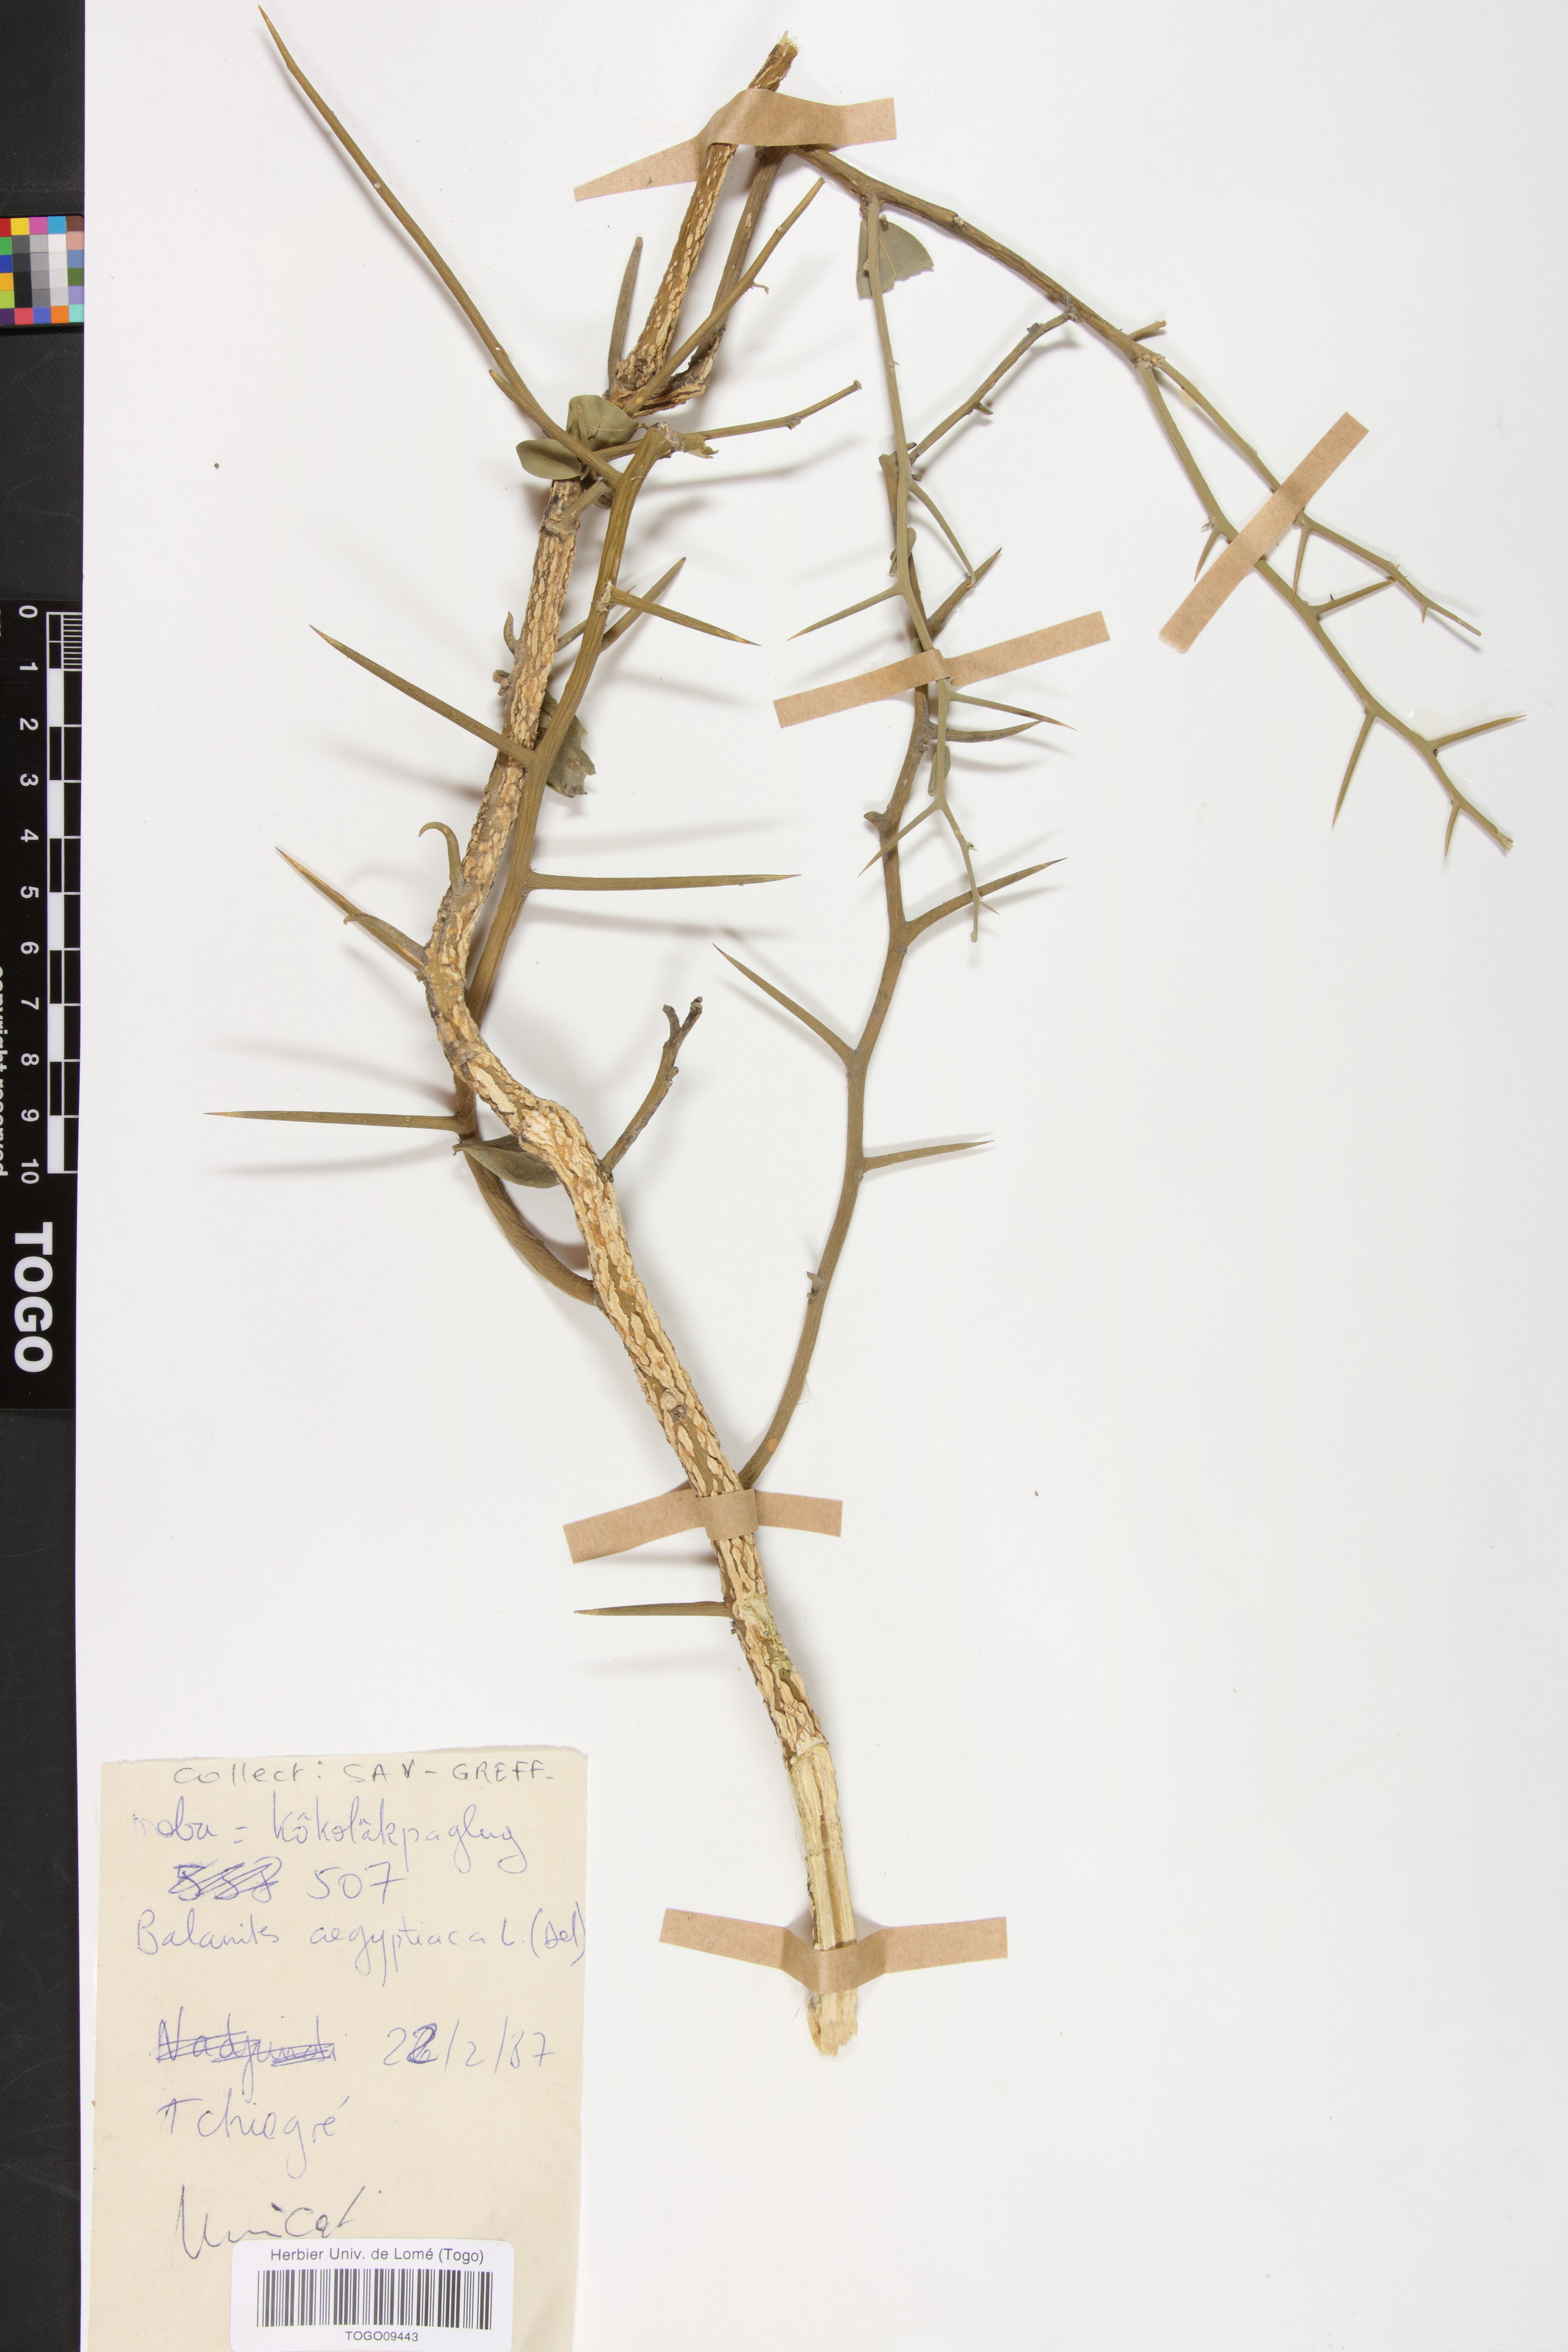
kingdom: Plantae
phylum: Tracheophyta
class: Magnoliopsida
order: Zygophyllales
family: Zygophyllaceae
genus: Balanites
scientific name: Balanites aegyptiaca
